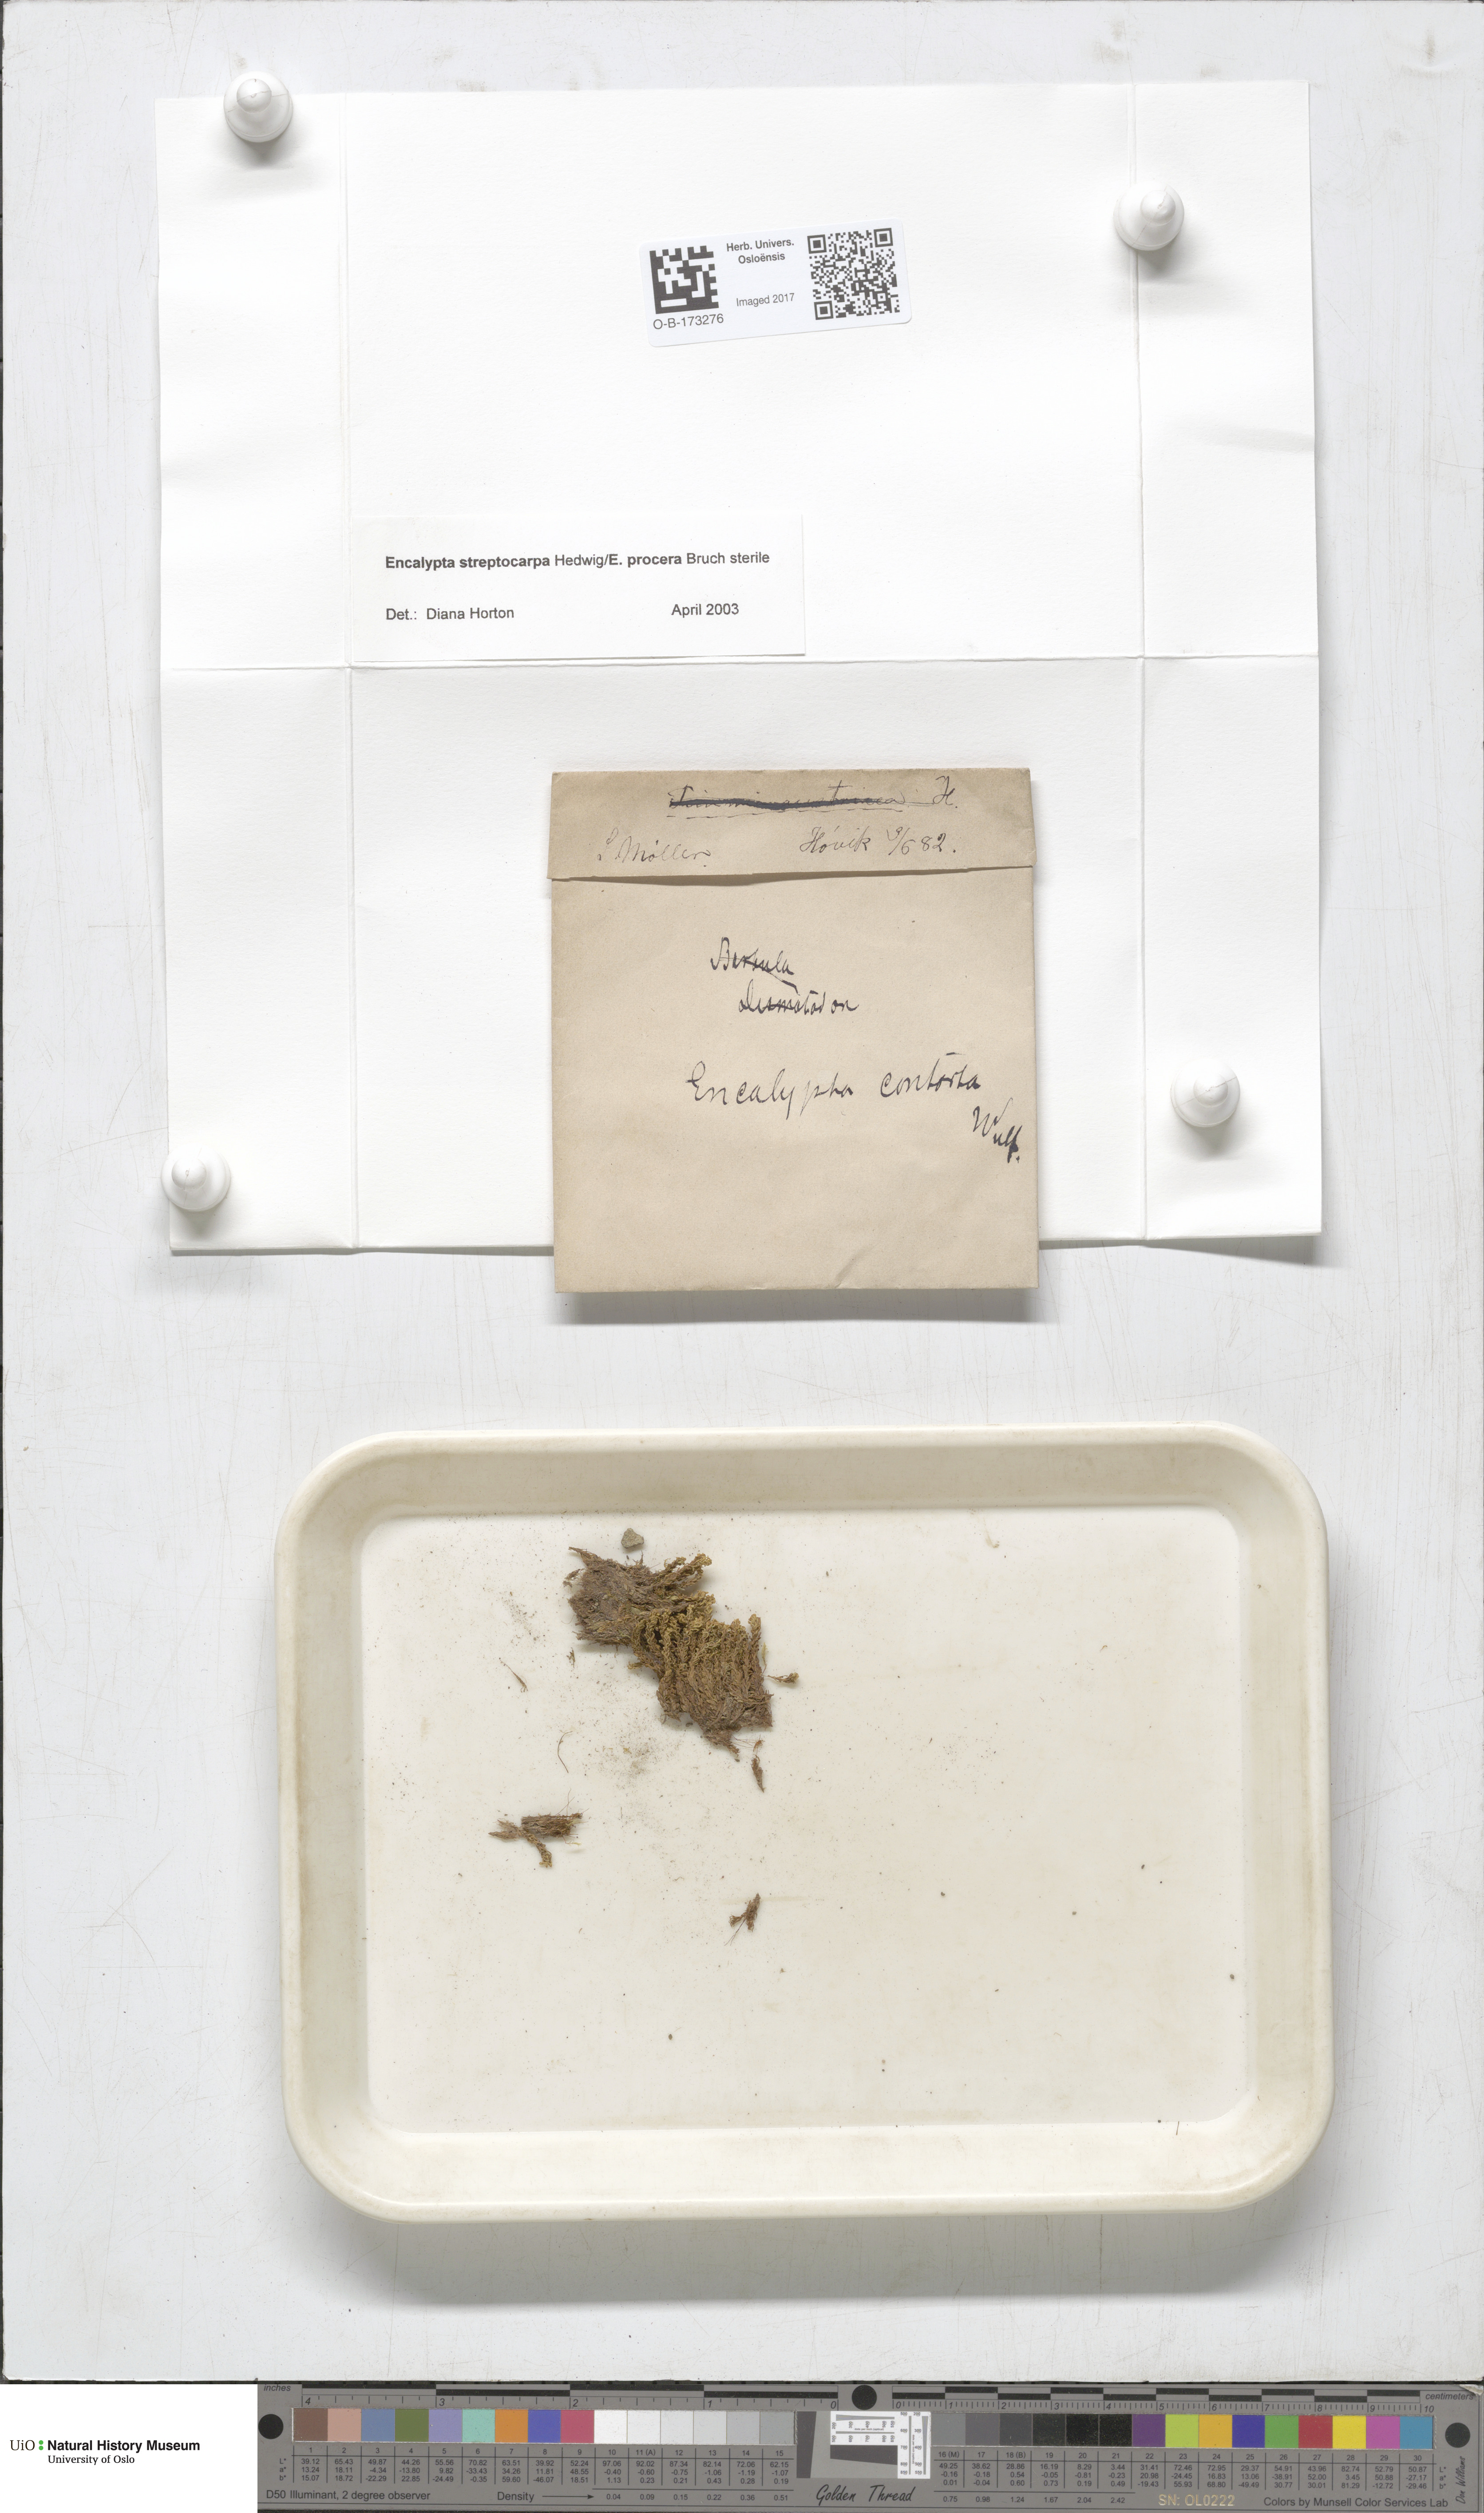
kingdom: Plantae
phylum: Bryophyta
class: Bryopsida
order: Encalyptales
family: Encalyptaceae
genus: Encalypta
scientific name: Encalypta
